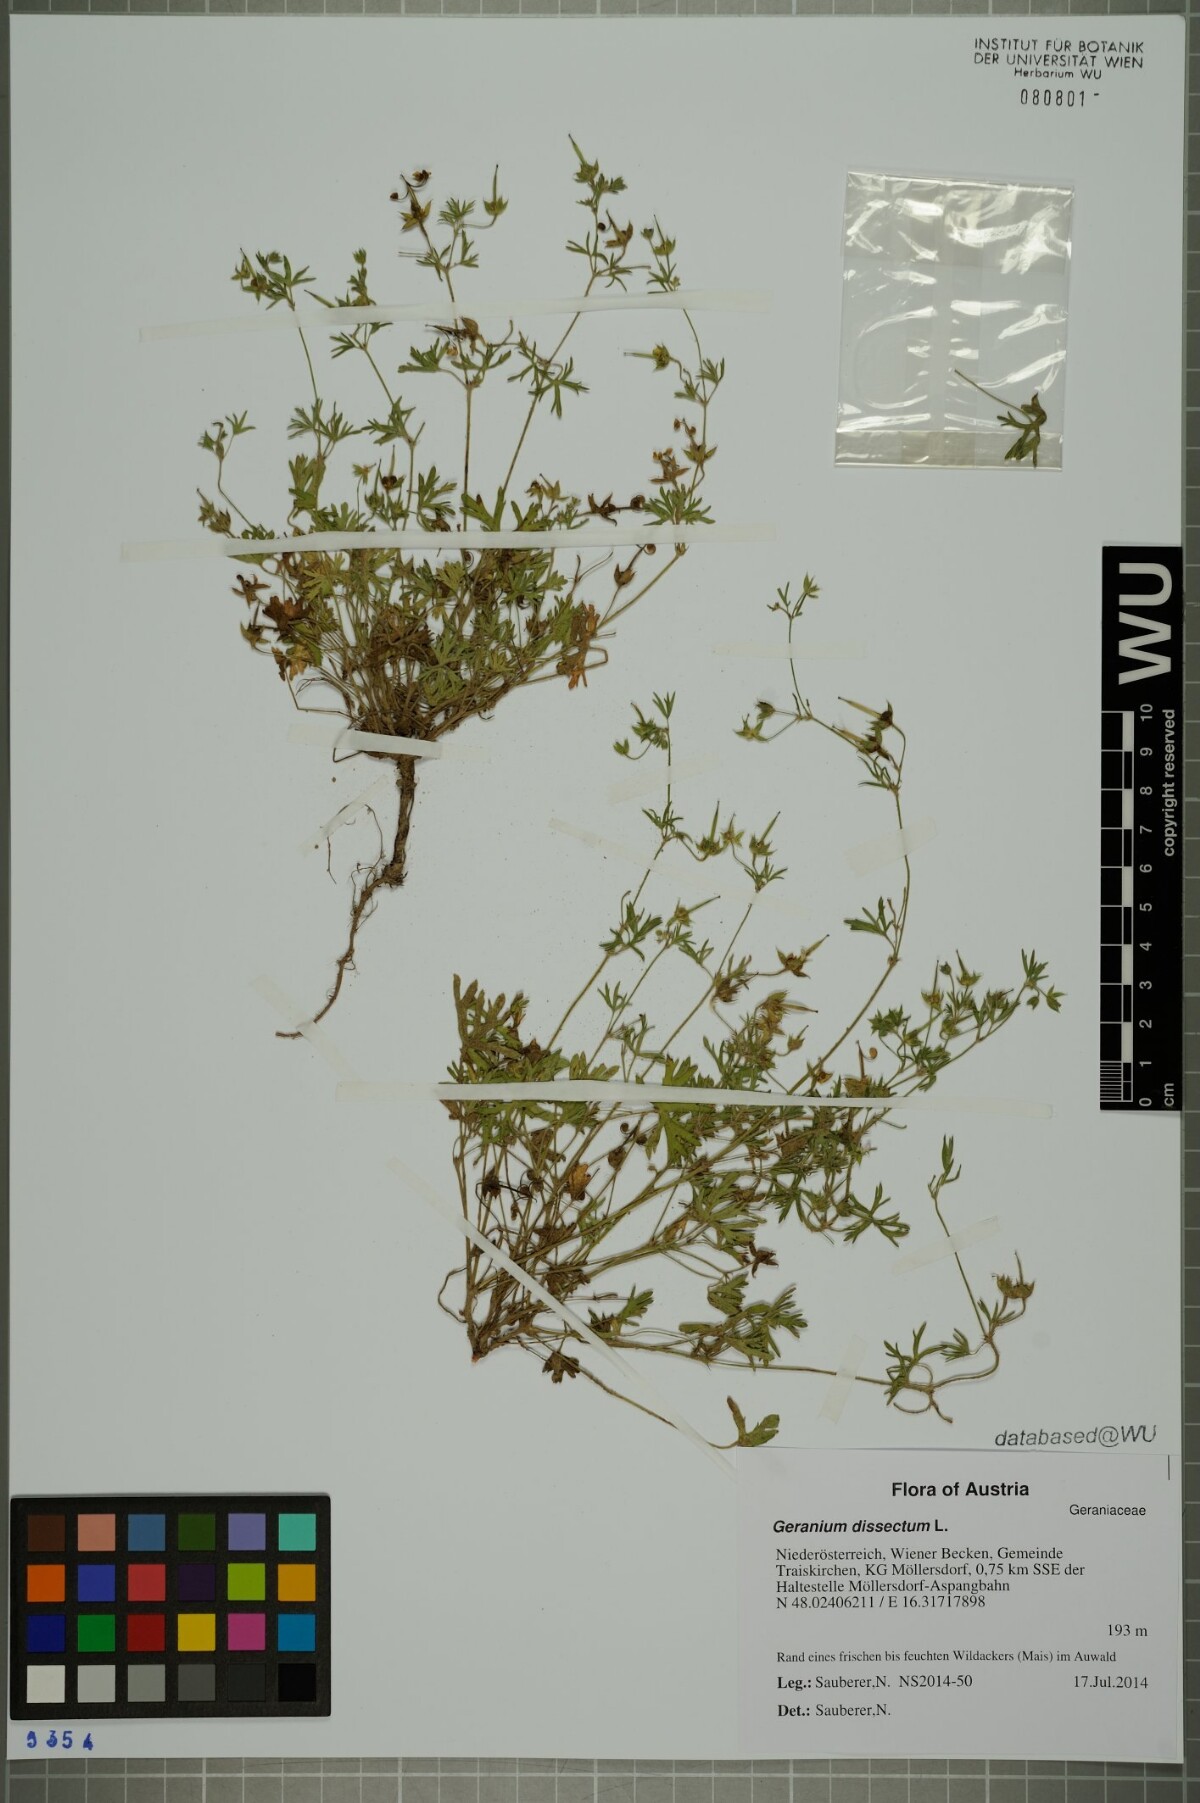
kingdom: Plantae
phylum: Tracheophyta
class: Magnoliopsida
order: Geraniales
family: Geraniaceae
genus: Geranium
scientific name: Geranium dissectum
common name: Cut-leaved crane's-bill
